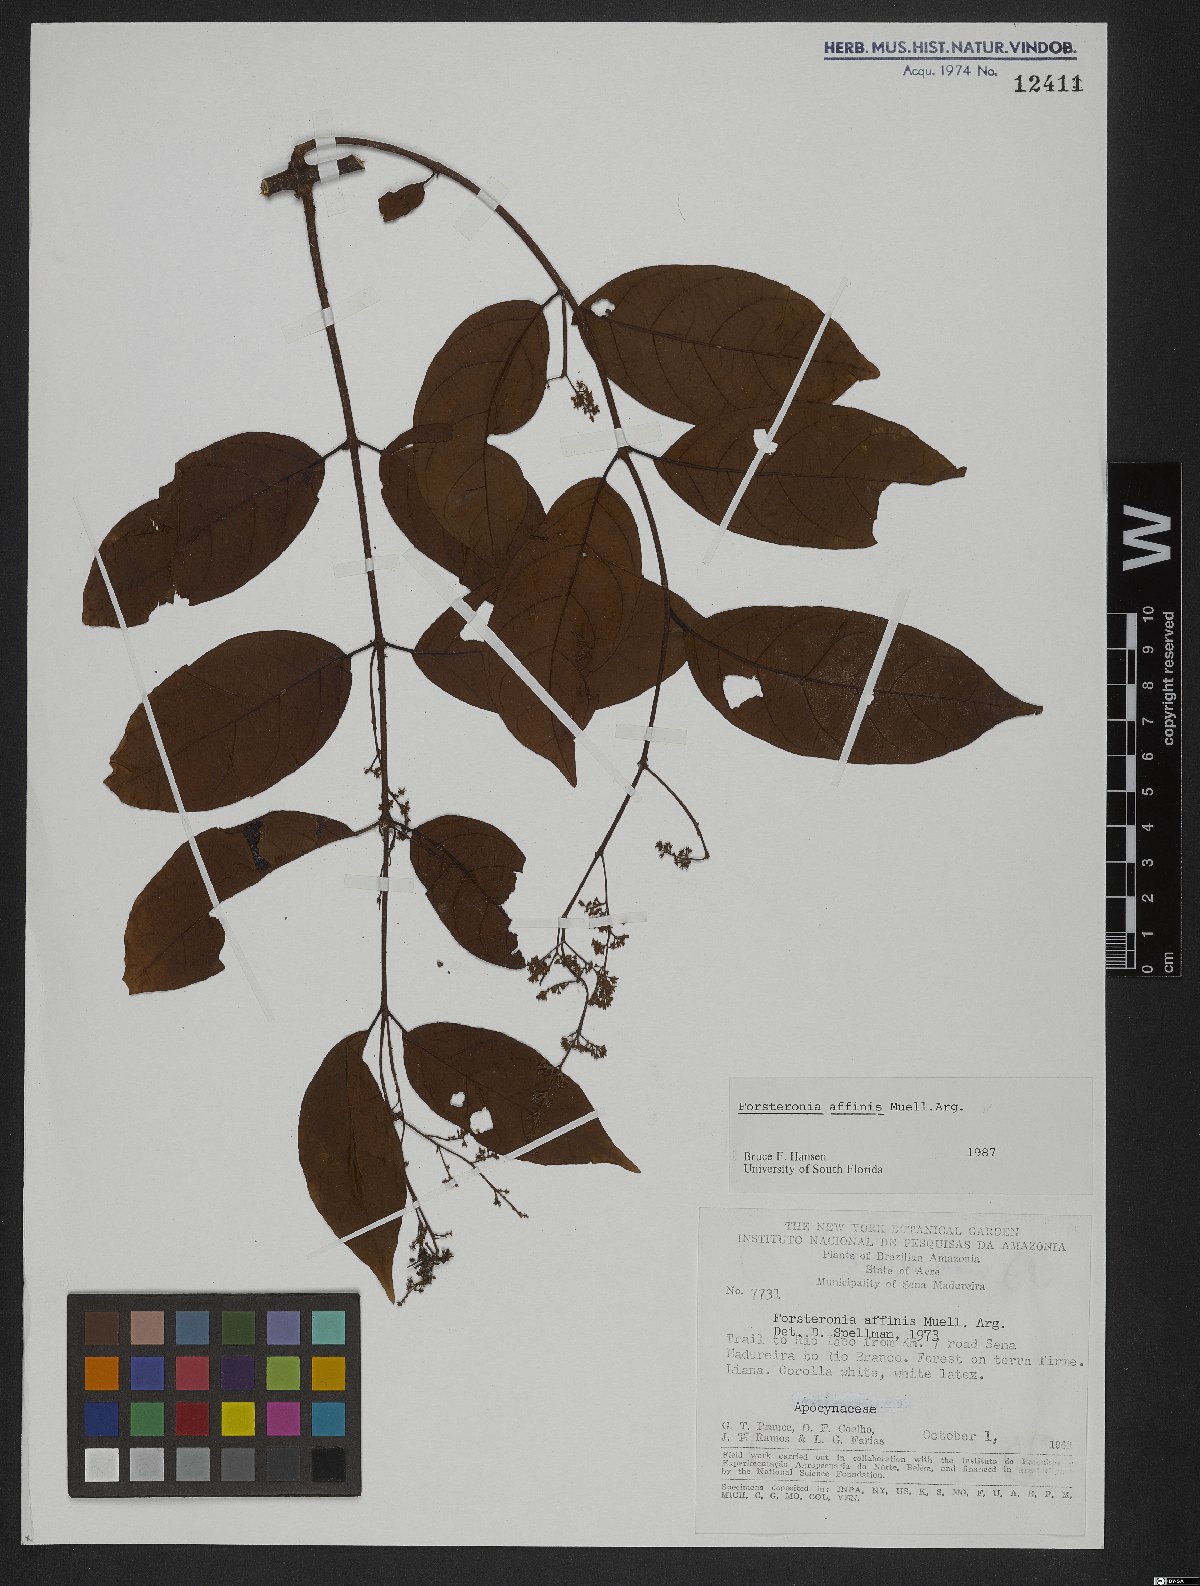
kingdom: Plantae
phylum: Tracheophyta
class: Magnoliopsida
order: Gentianales
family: Apocynaceae
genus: Forsteronia
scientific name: Forsteronia affinis
